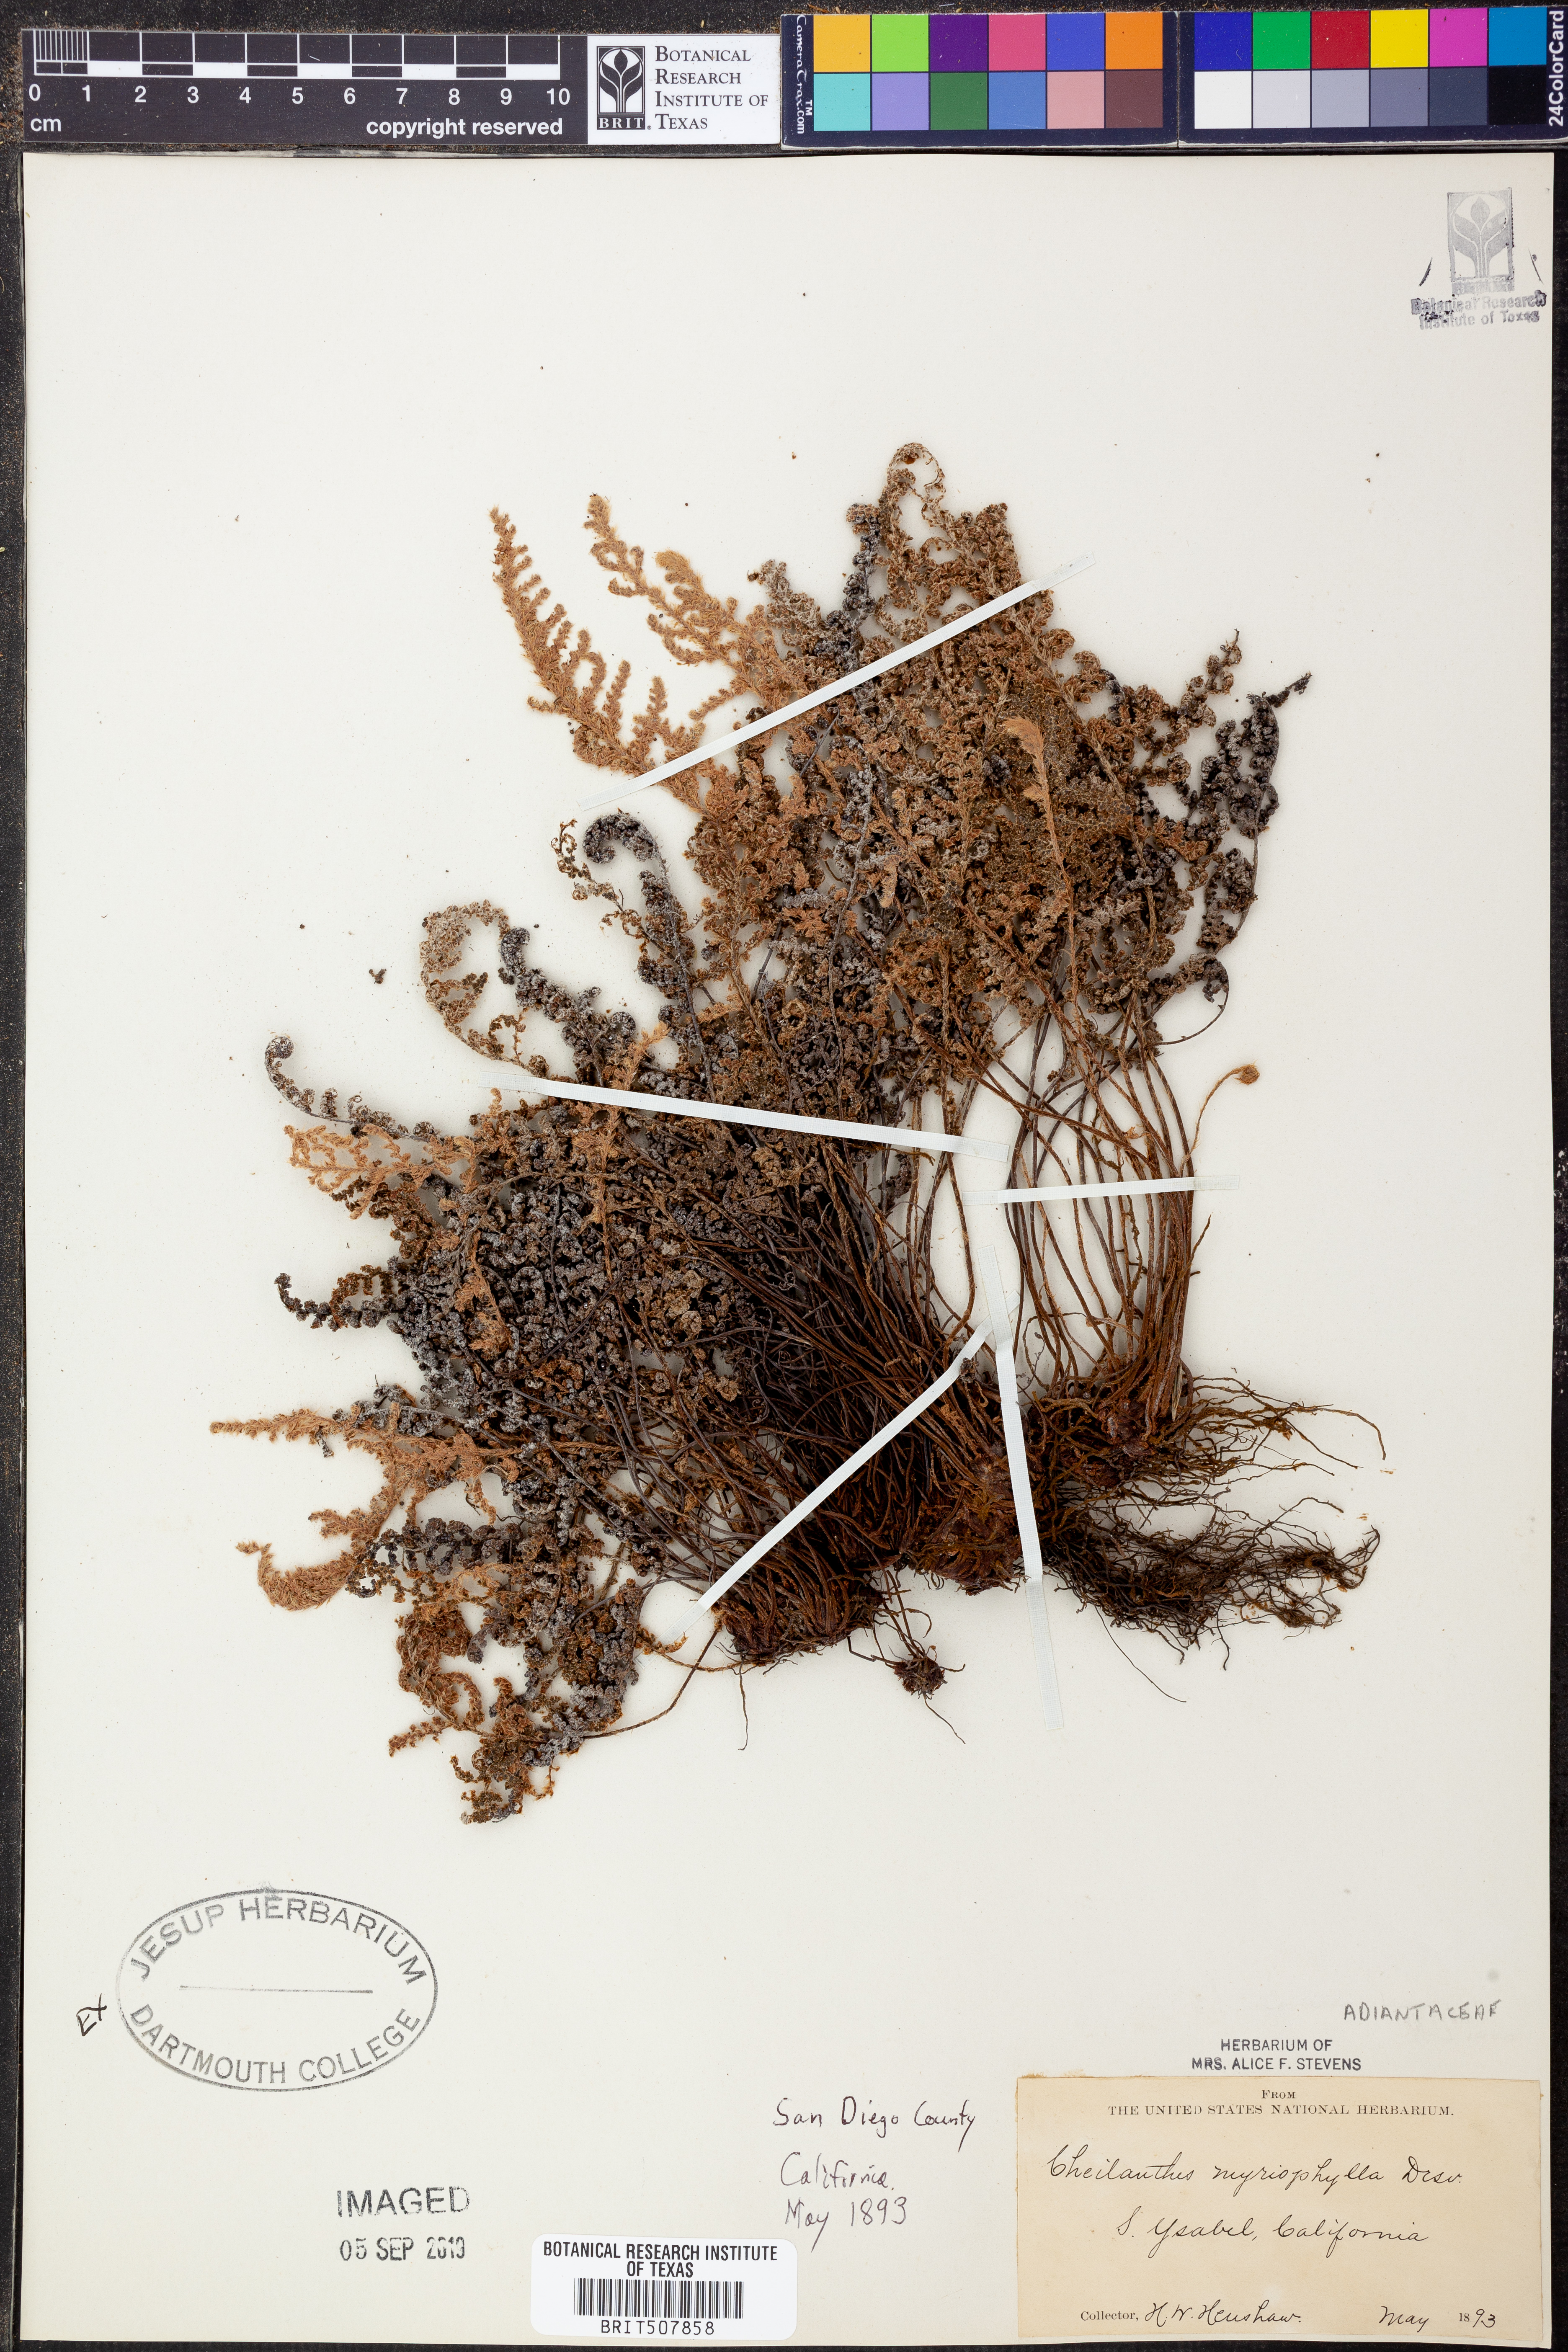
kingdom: Plantae
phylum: Tracheophyta
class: Polypodiopsida
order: Polypodiales
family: Pteridaceae
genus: Myriopteris
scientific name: Myriopteris myriophylla
